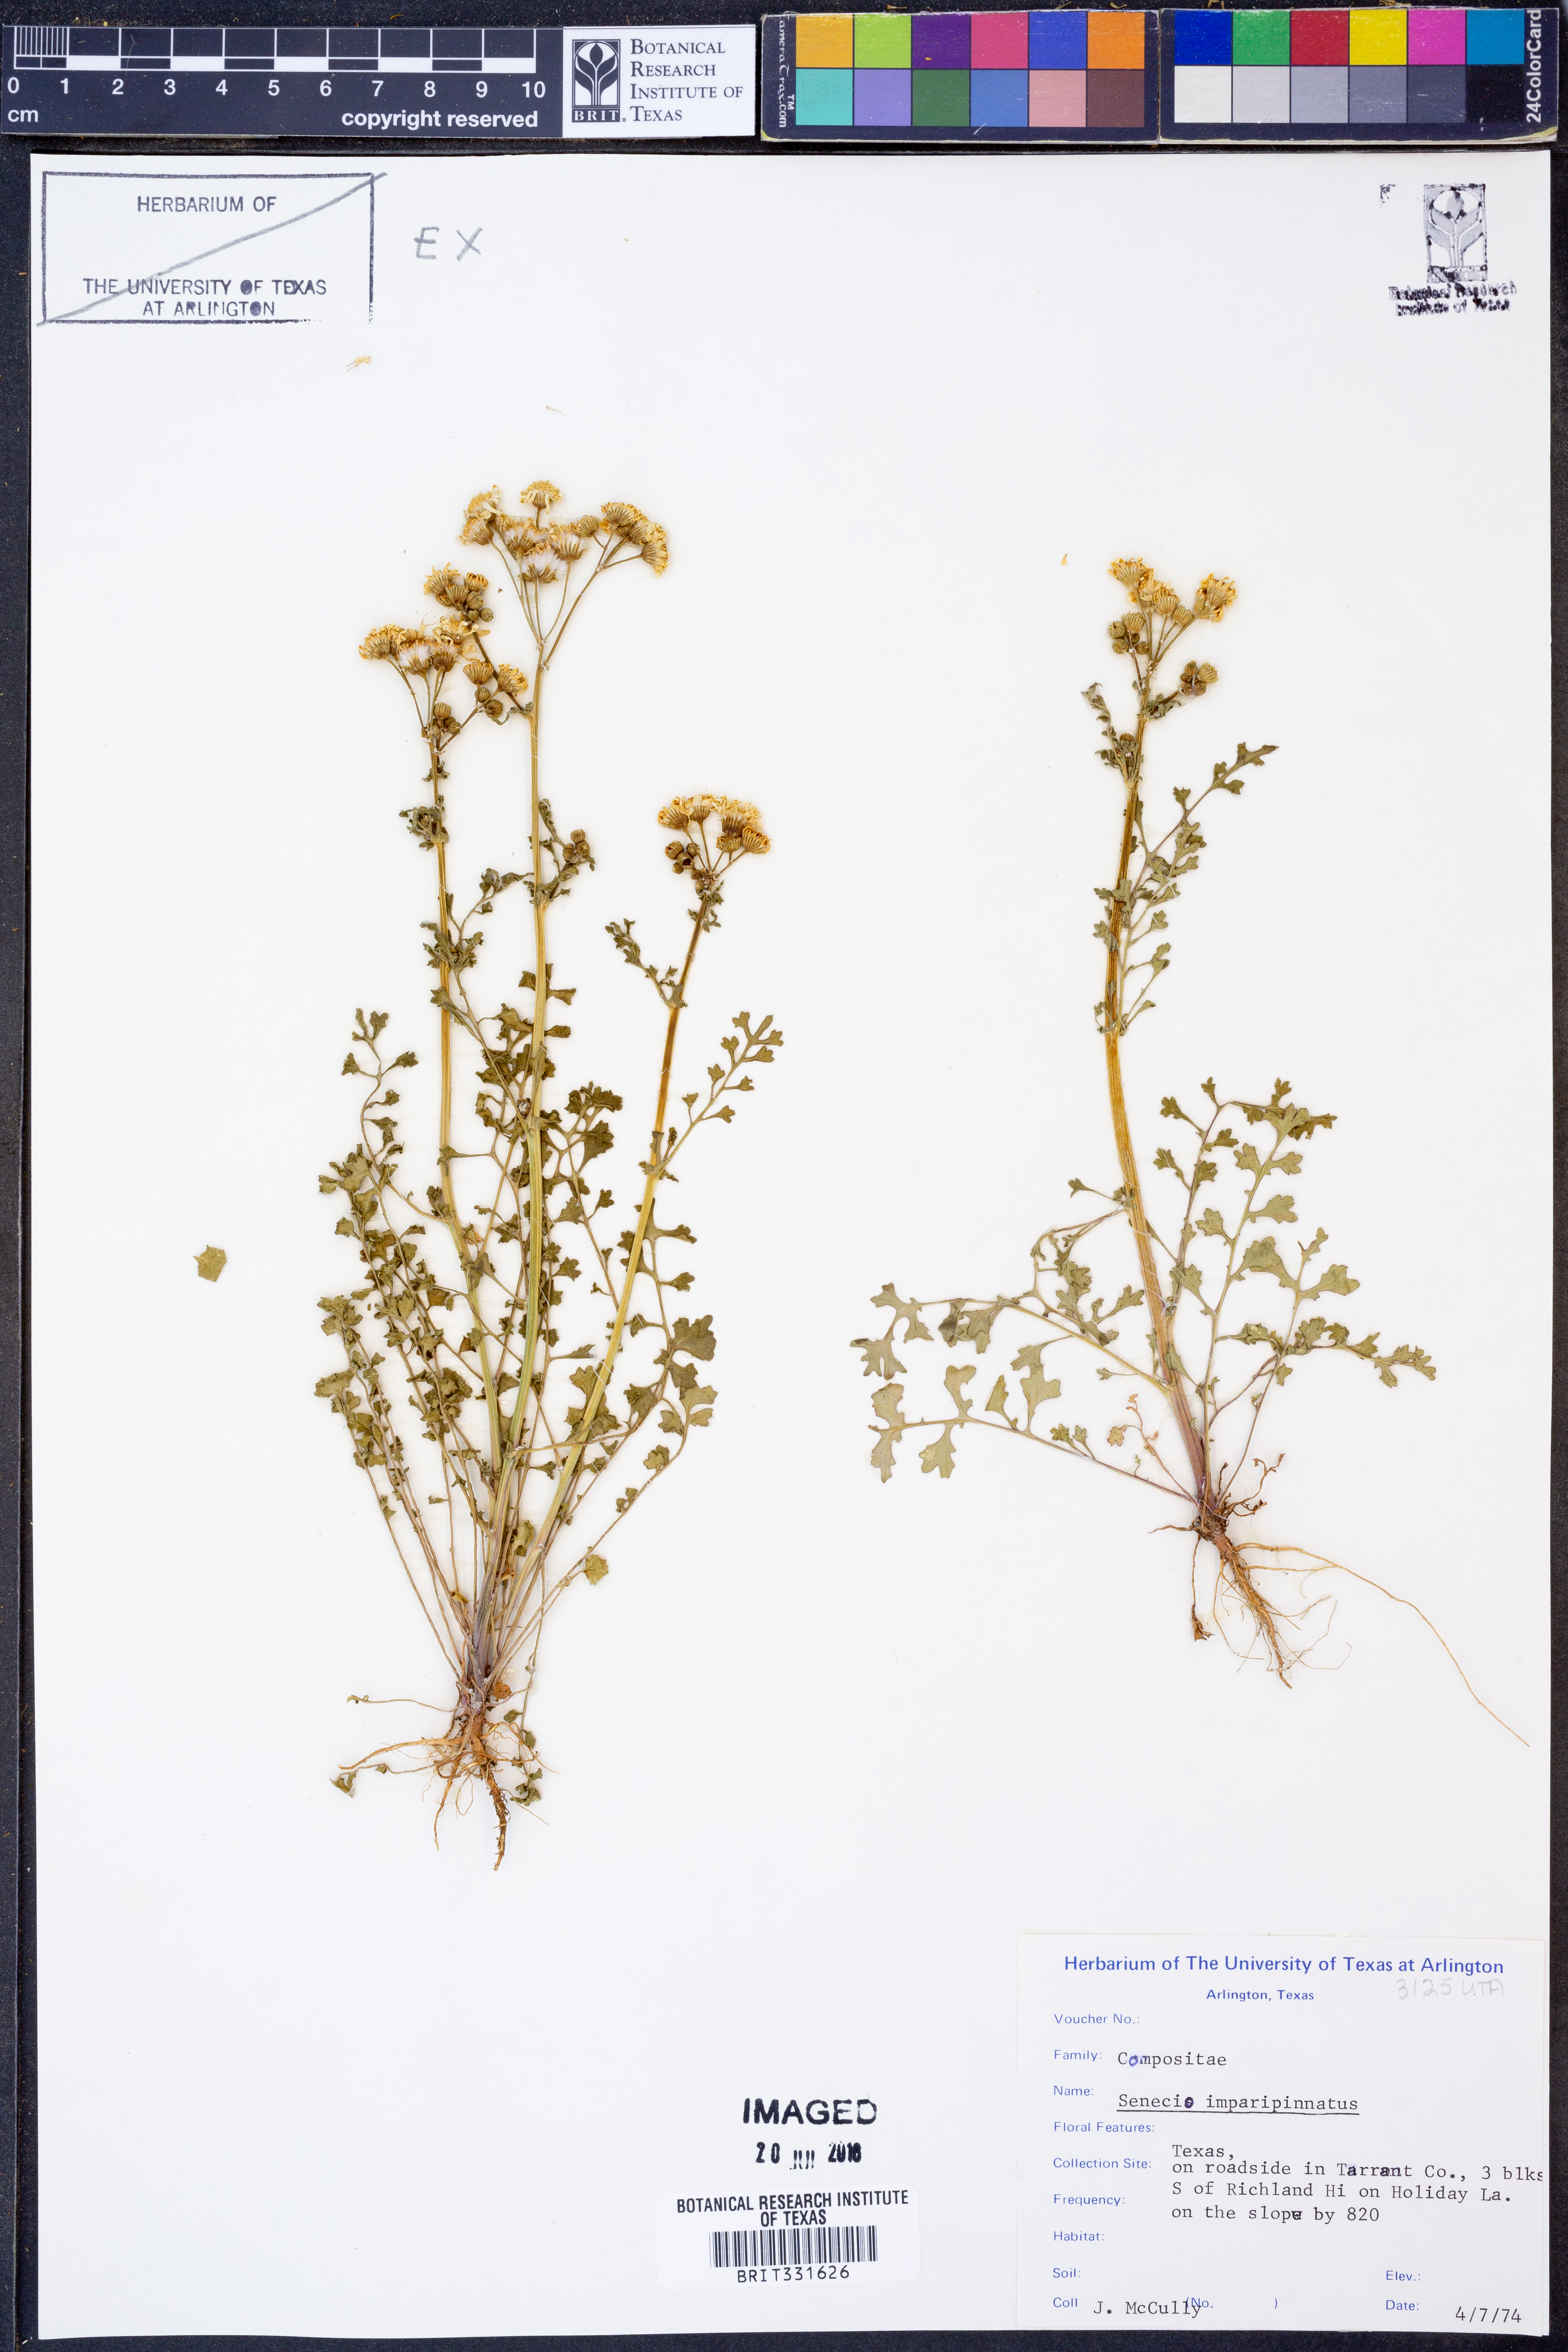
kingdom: Plantae
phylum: Tracheophyta
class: Magnoliopsida
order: Asterales
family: Asteraceae
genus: Packera
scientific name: Packera tampicana
